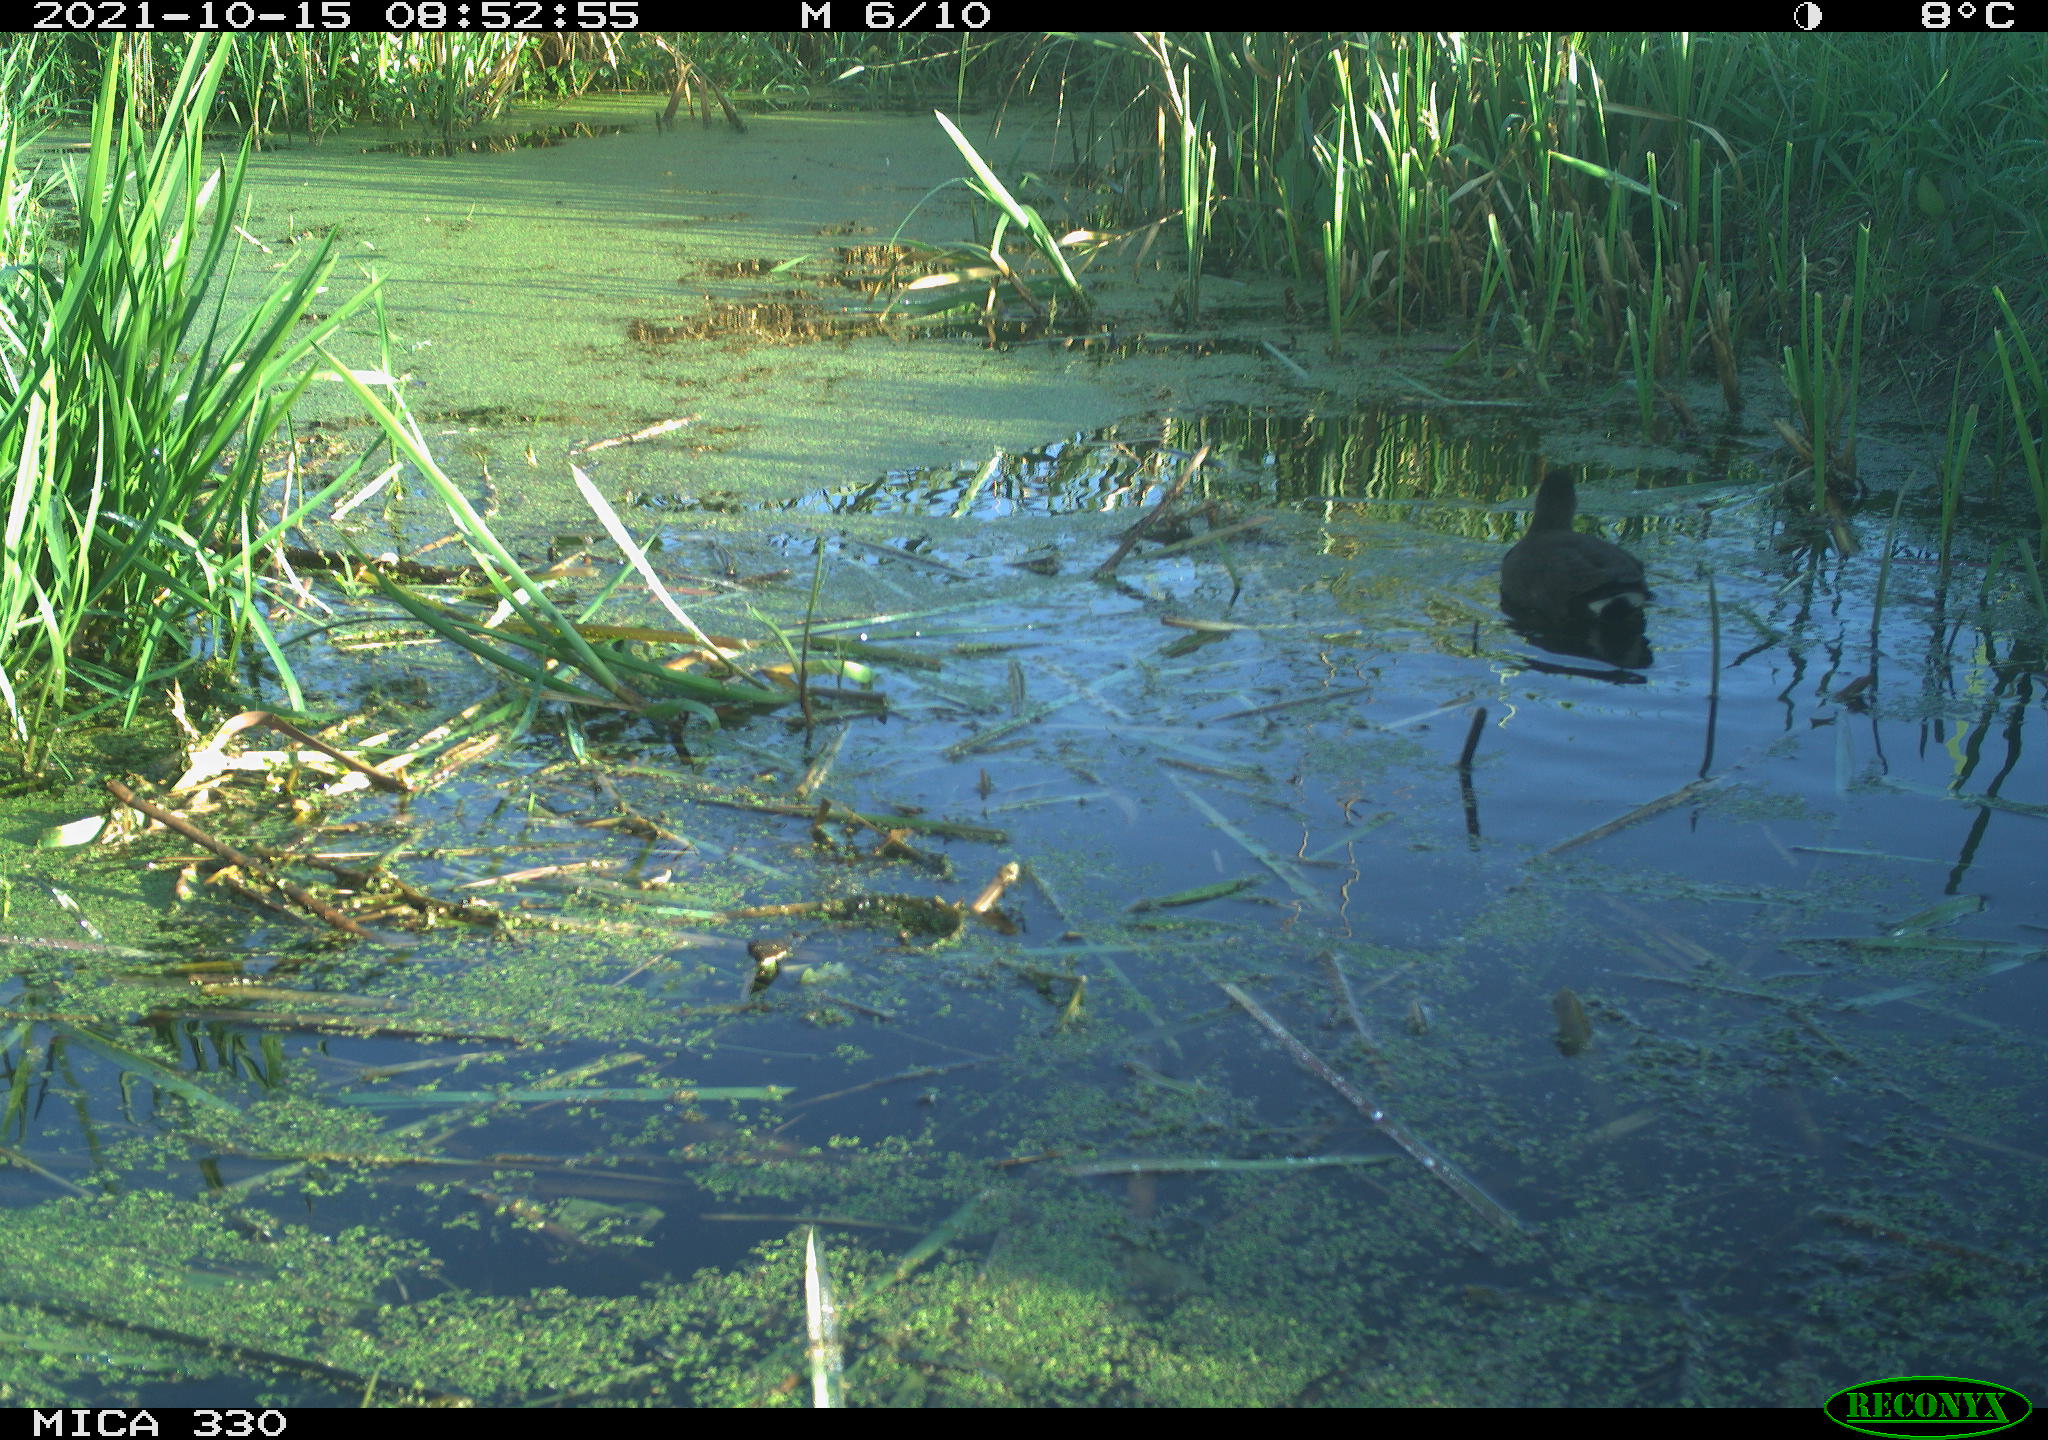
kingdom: Animalia
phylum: Chordata
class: Aves
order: Gruiformes
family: Rallidae
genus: Gallinula
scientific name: Gallinula chloropus
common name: Common moorhen
